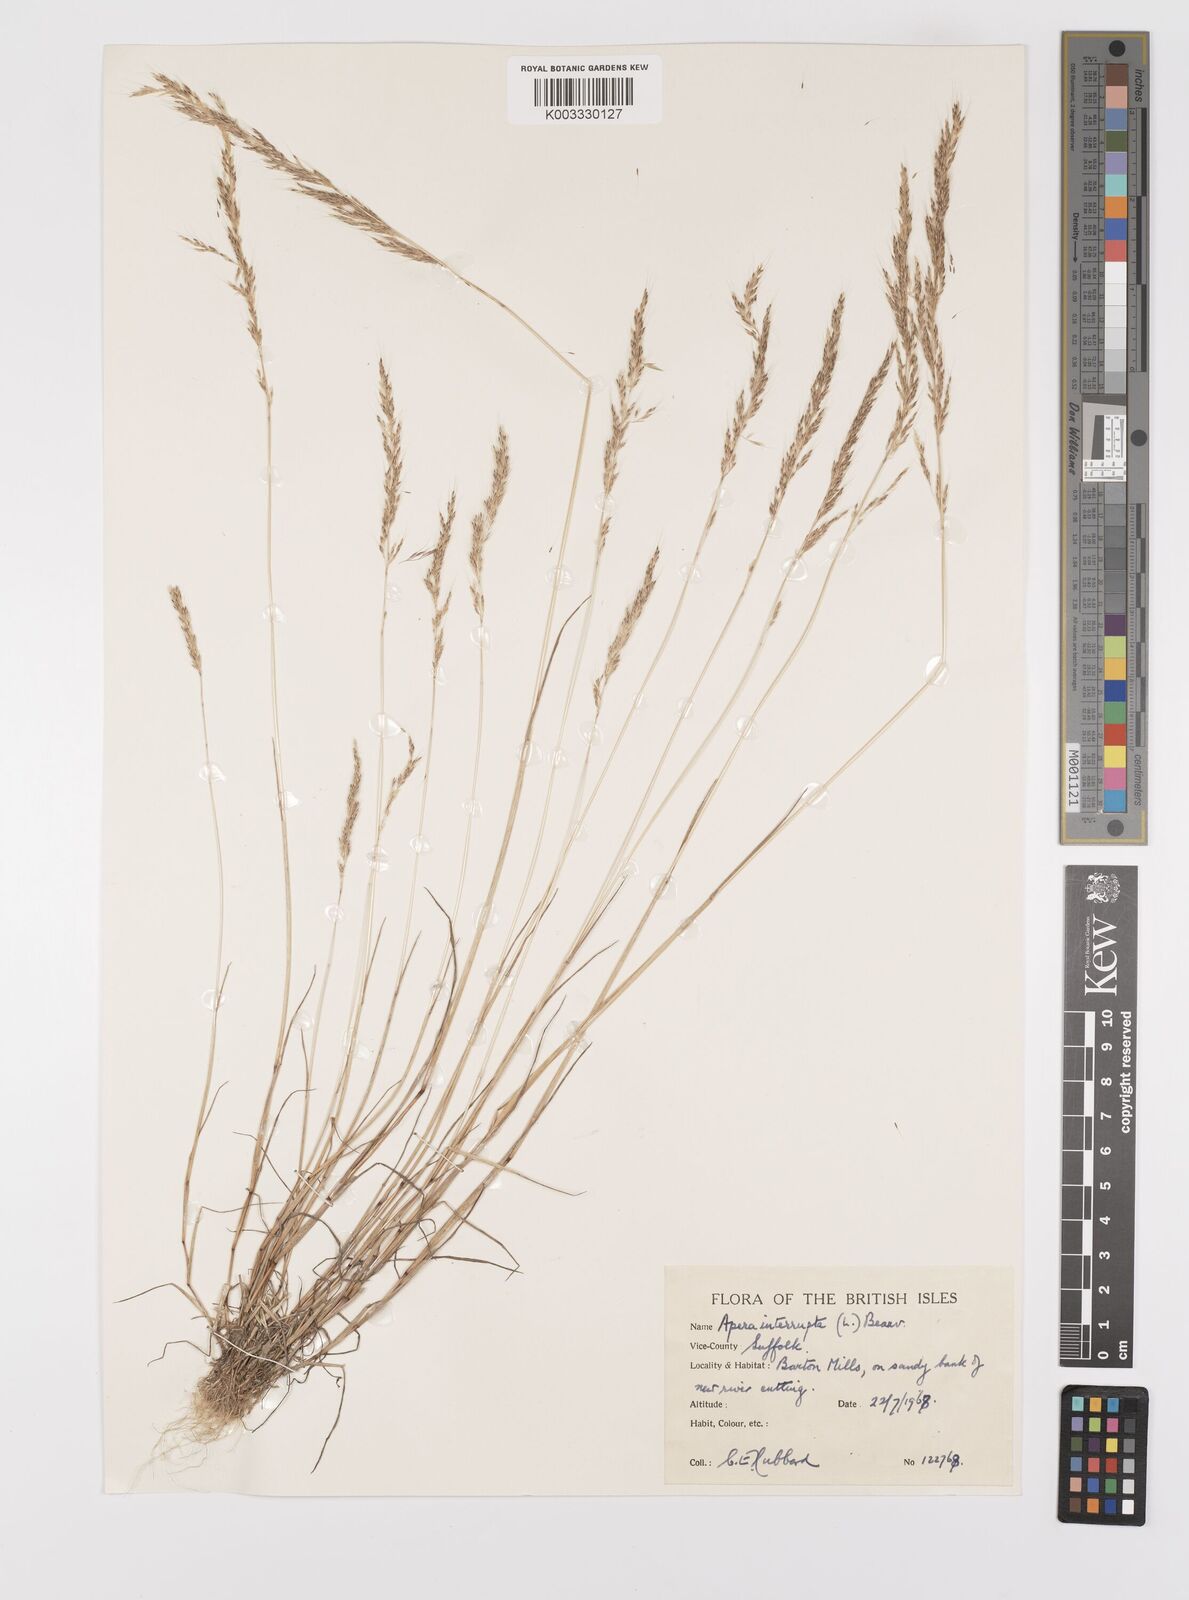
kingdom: Plantae
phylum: Tracheophyta
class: Liliopsida
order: Poales
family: Poaceae
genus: Apera
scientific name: Apera interrupta
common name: Dense silky-bent
